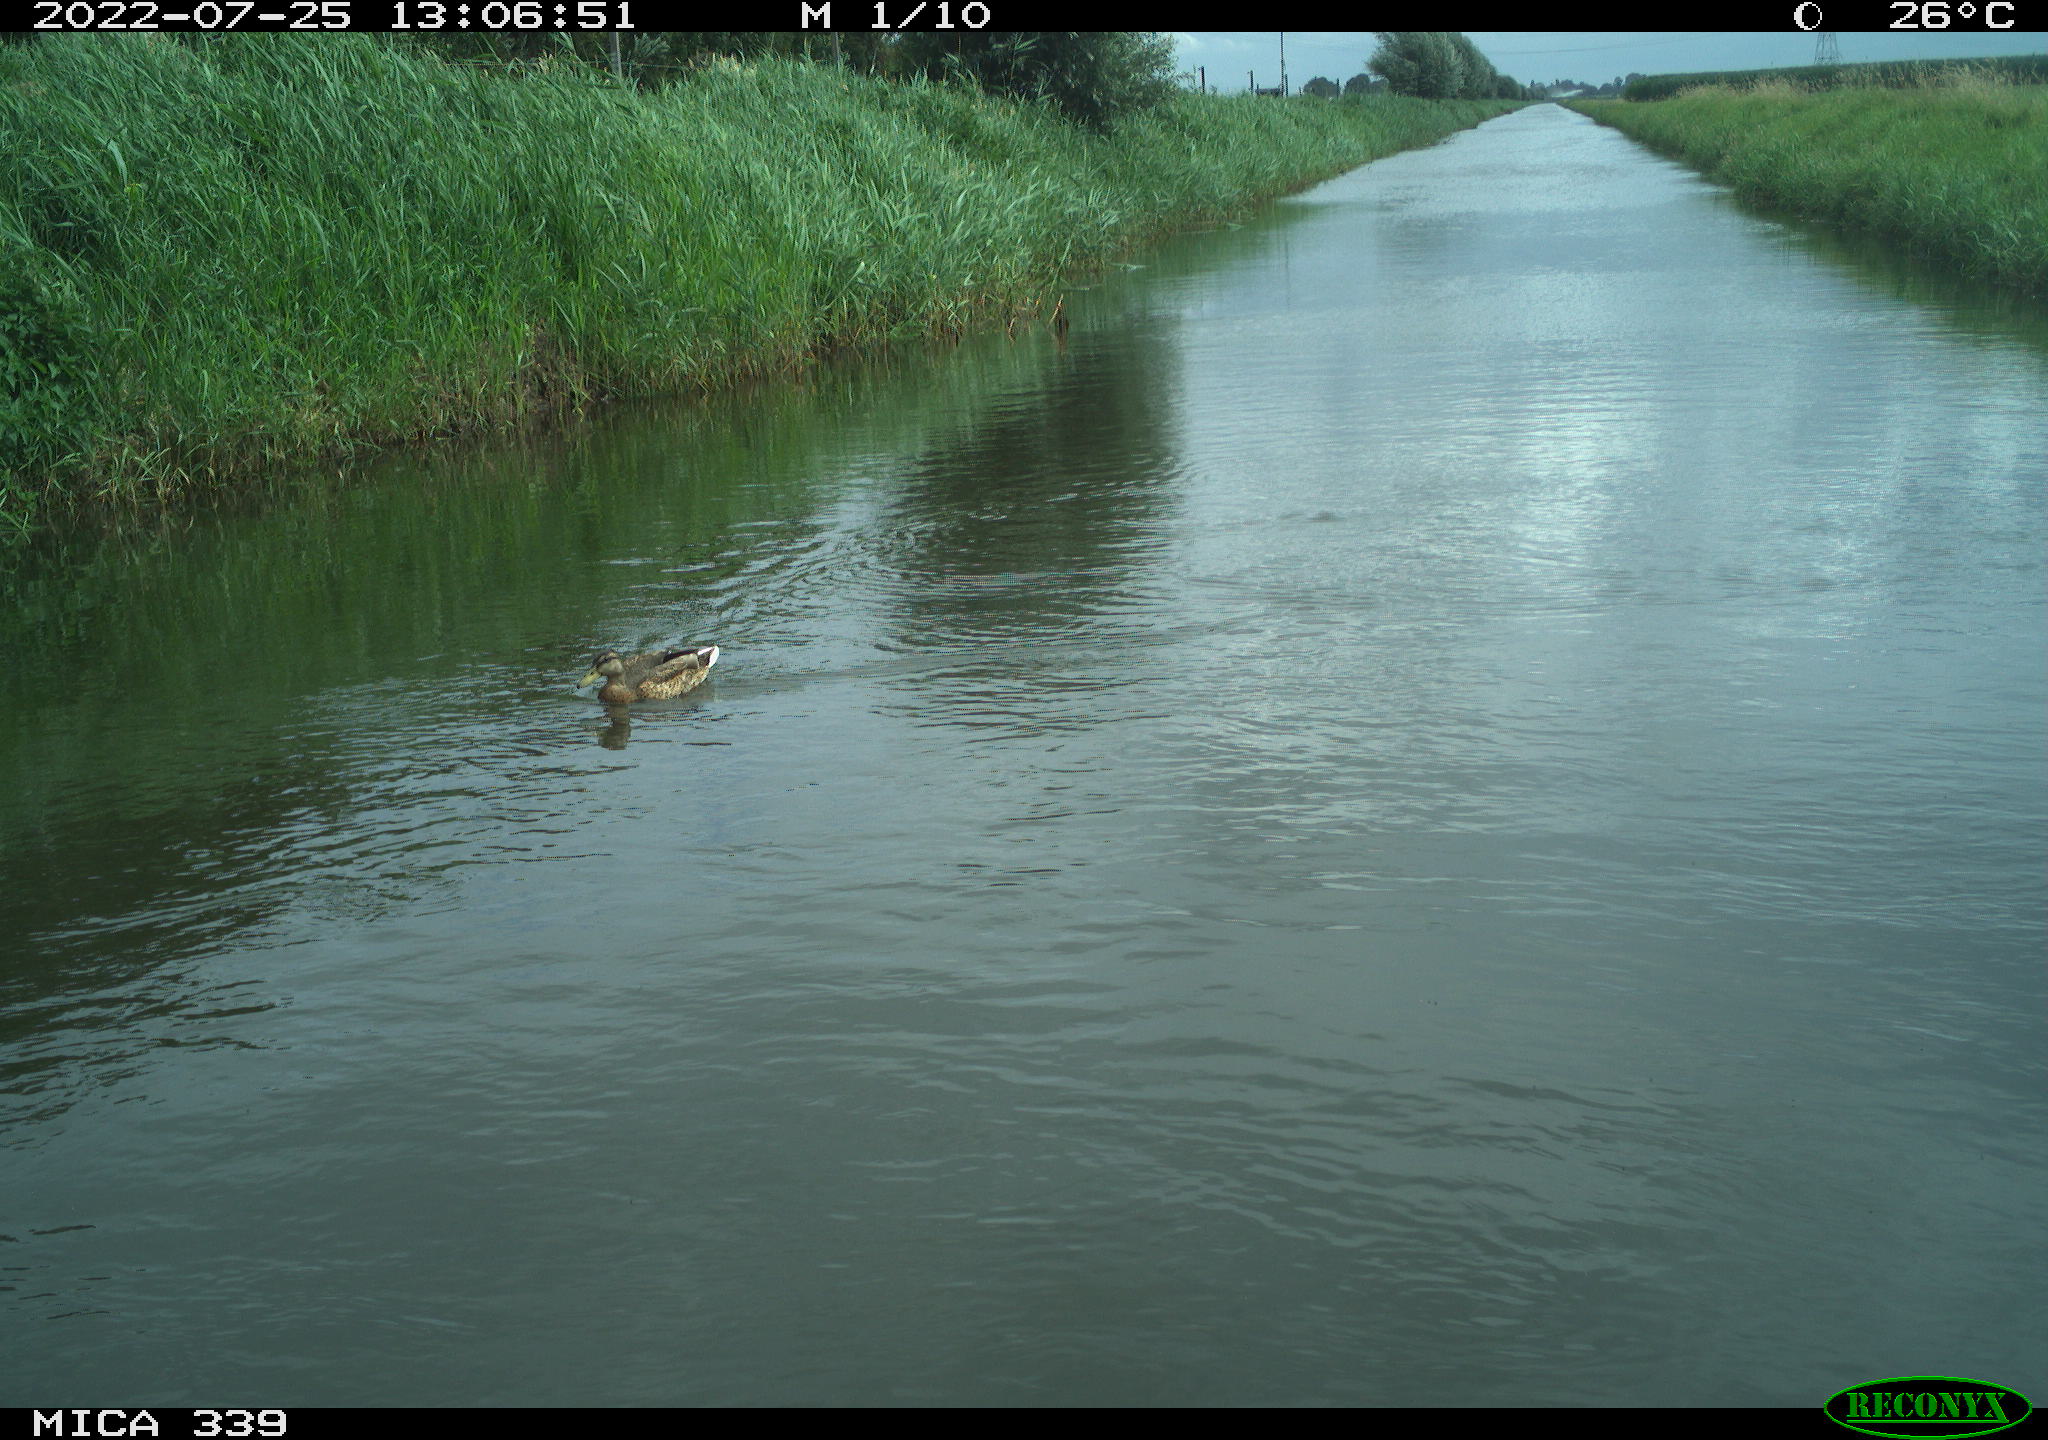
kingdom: Animalia
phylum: Chordata
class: Aves
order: Anseriformes
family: Anatidae
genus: Anas
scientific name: Anas platyrhynchos
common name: Mallard
